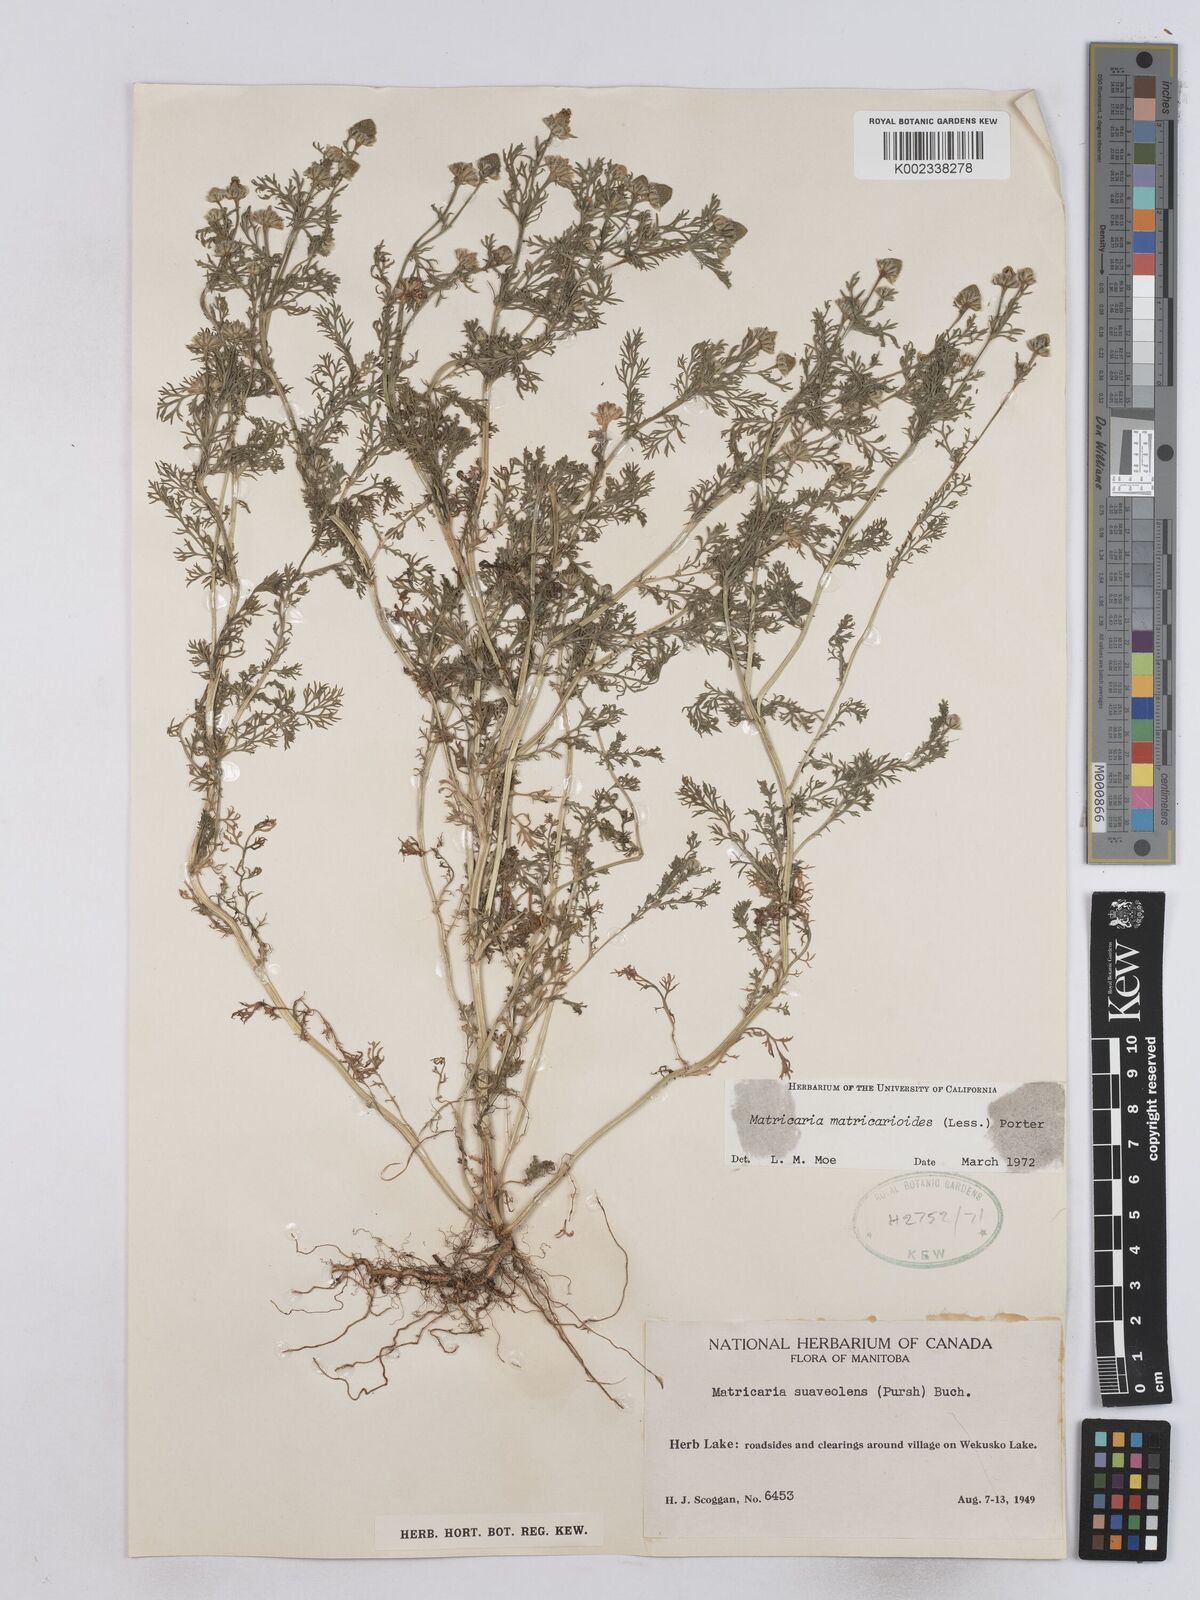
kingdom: Plantae
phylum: Tracheophyta
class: Magnoliopsida
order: Asterales
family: Asteraceae
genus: Matricaria
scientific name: Matricaria discoidea
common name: Disc mayweed
